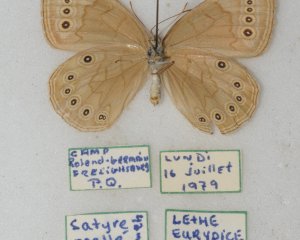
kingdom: Animalia
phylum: Arthropoda
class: Insecta
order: Lepidoptera
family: Nymphalidae
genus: Lethe
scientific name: Lethe eurydice
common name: Eyed Brown
